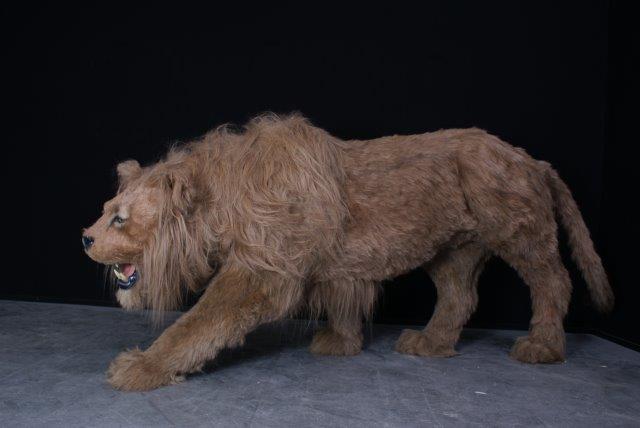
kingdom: Animalia
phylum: Chordata
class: Mammalia
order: Carnivora
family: Felidae
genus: Panthera
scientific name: Panthera leo
